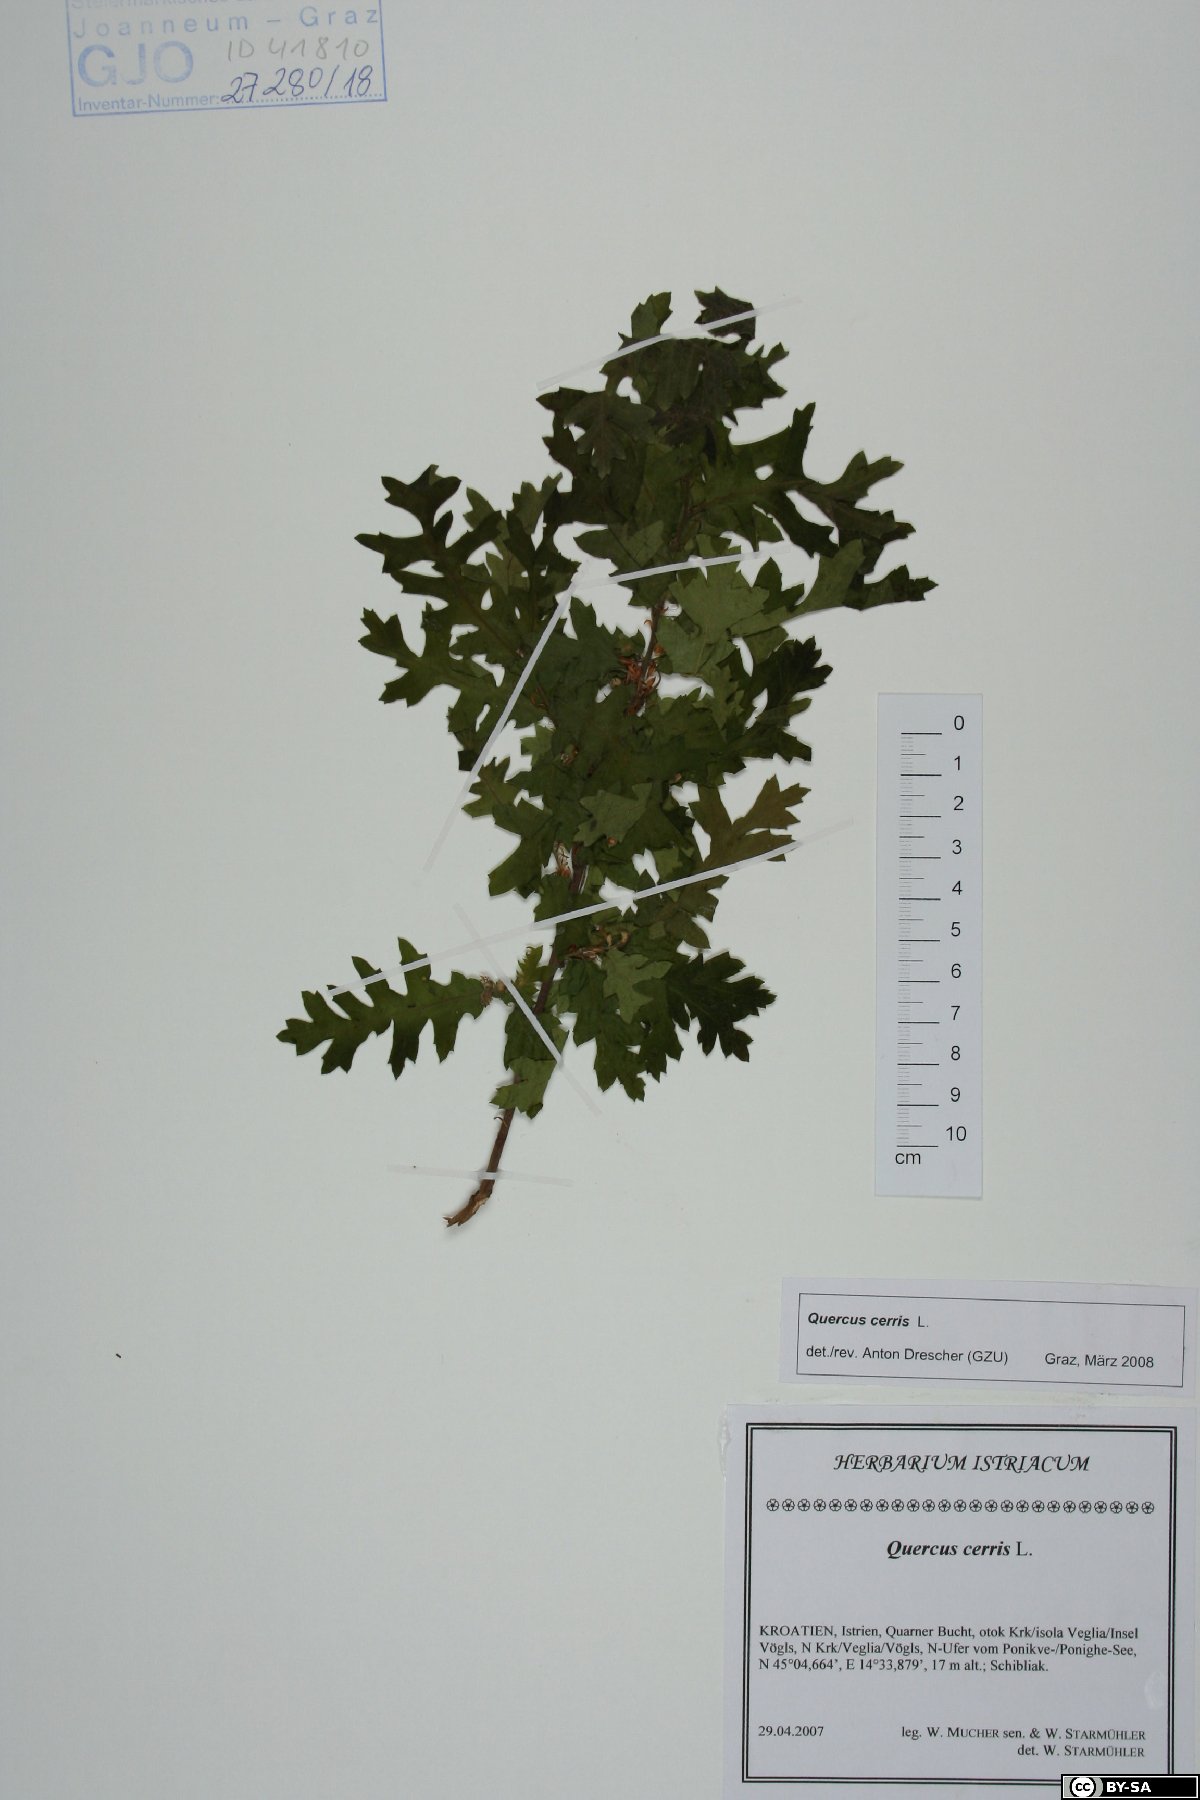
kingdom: Plantae
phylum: Tracheophyta
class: Magnoliopsida
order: Fagales
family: Fagaceae
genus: Quercus
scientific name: Quercus cerris
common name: Turkey oak
